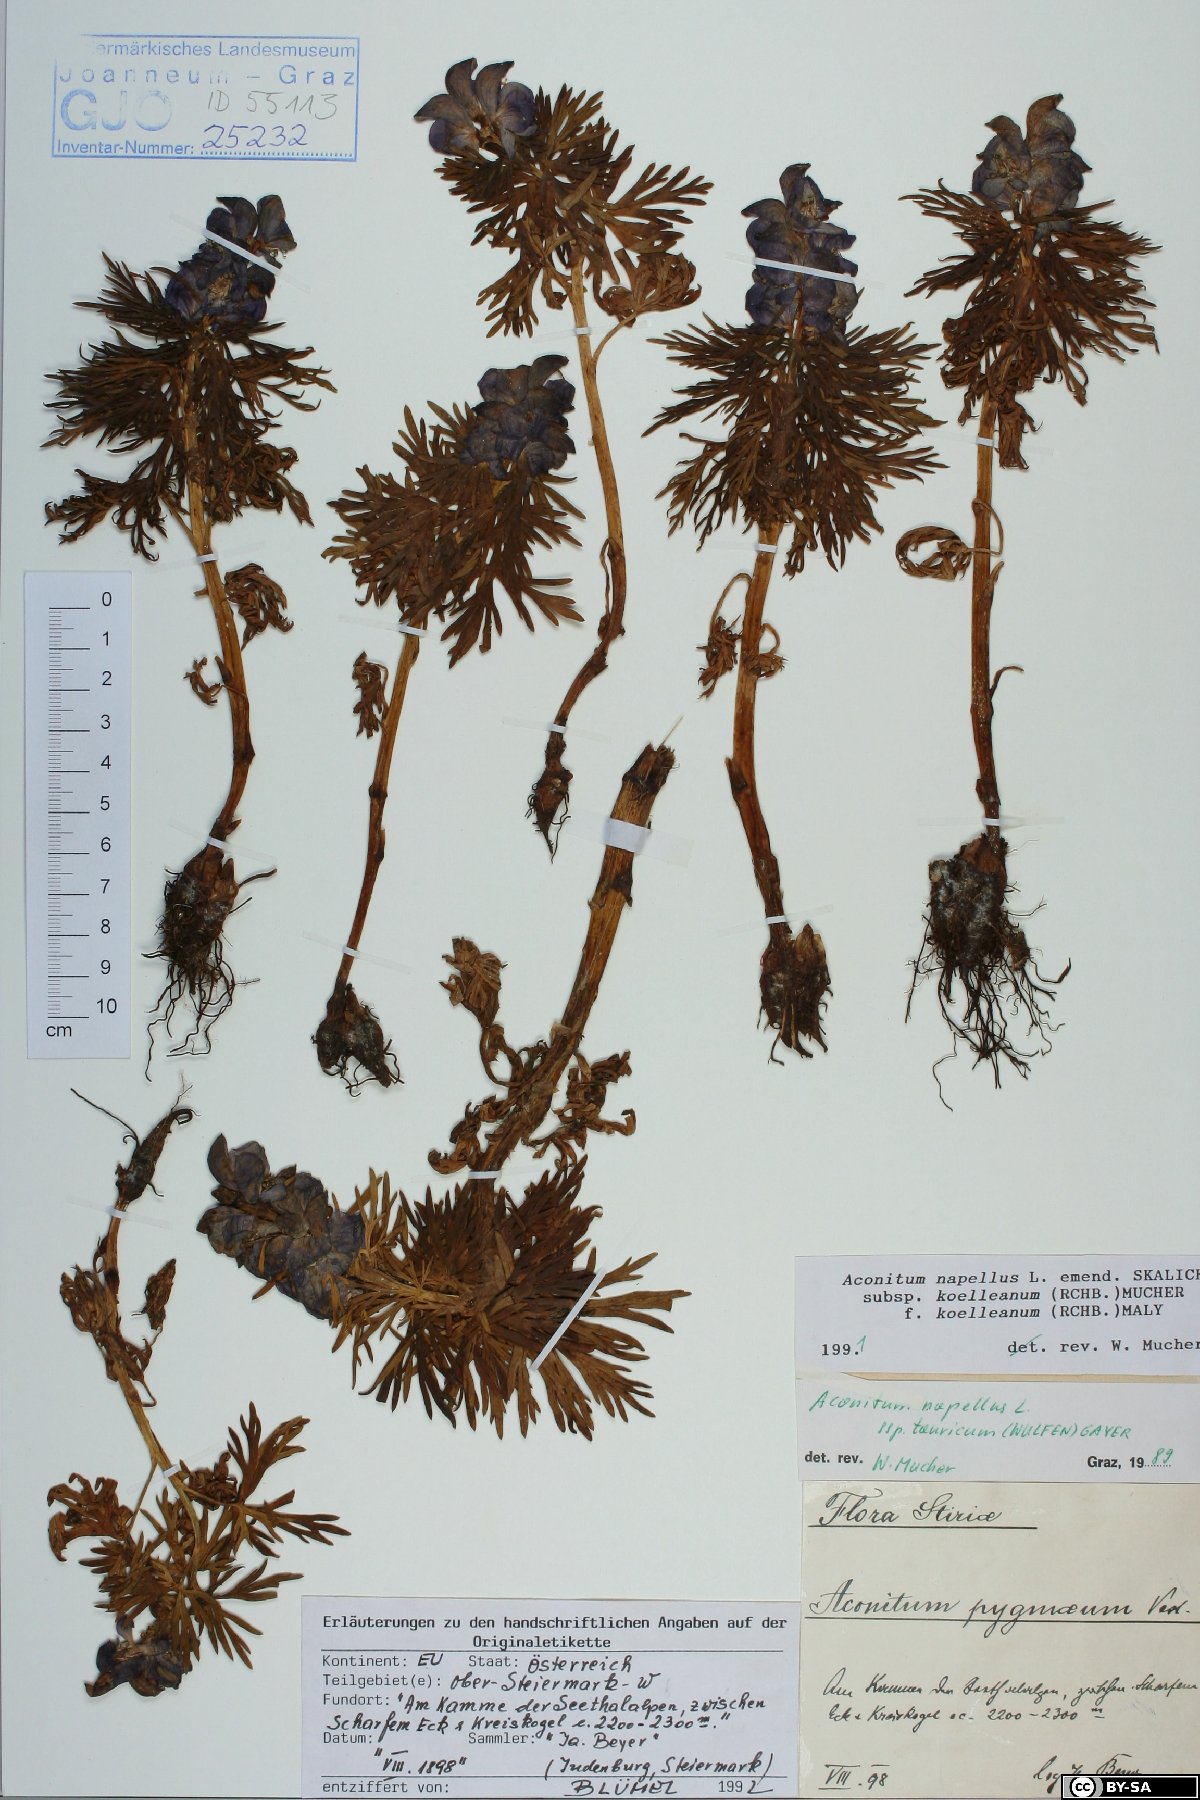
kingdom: Plantae
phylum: Tracheophyta
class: Magnoliopsida
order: Ranunculales
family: Ranunculaceae
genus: Aconitum
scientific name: Aconitum tauricum
